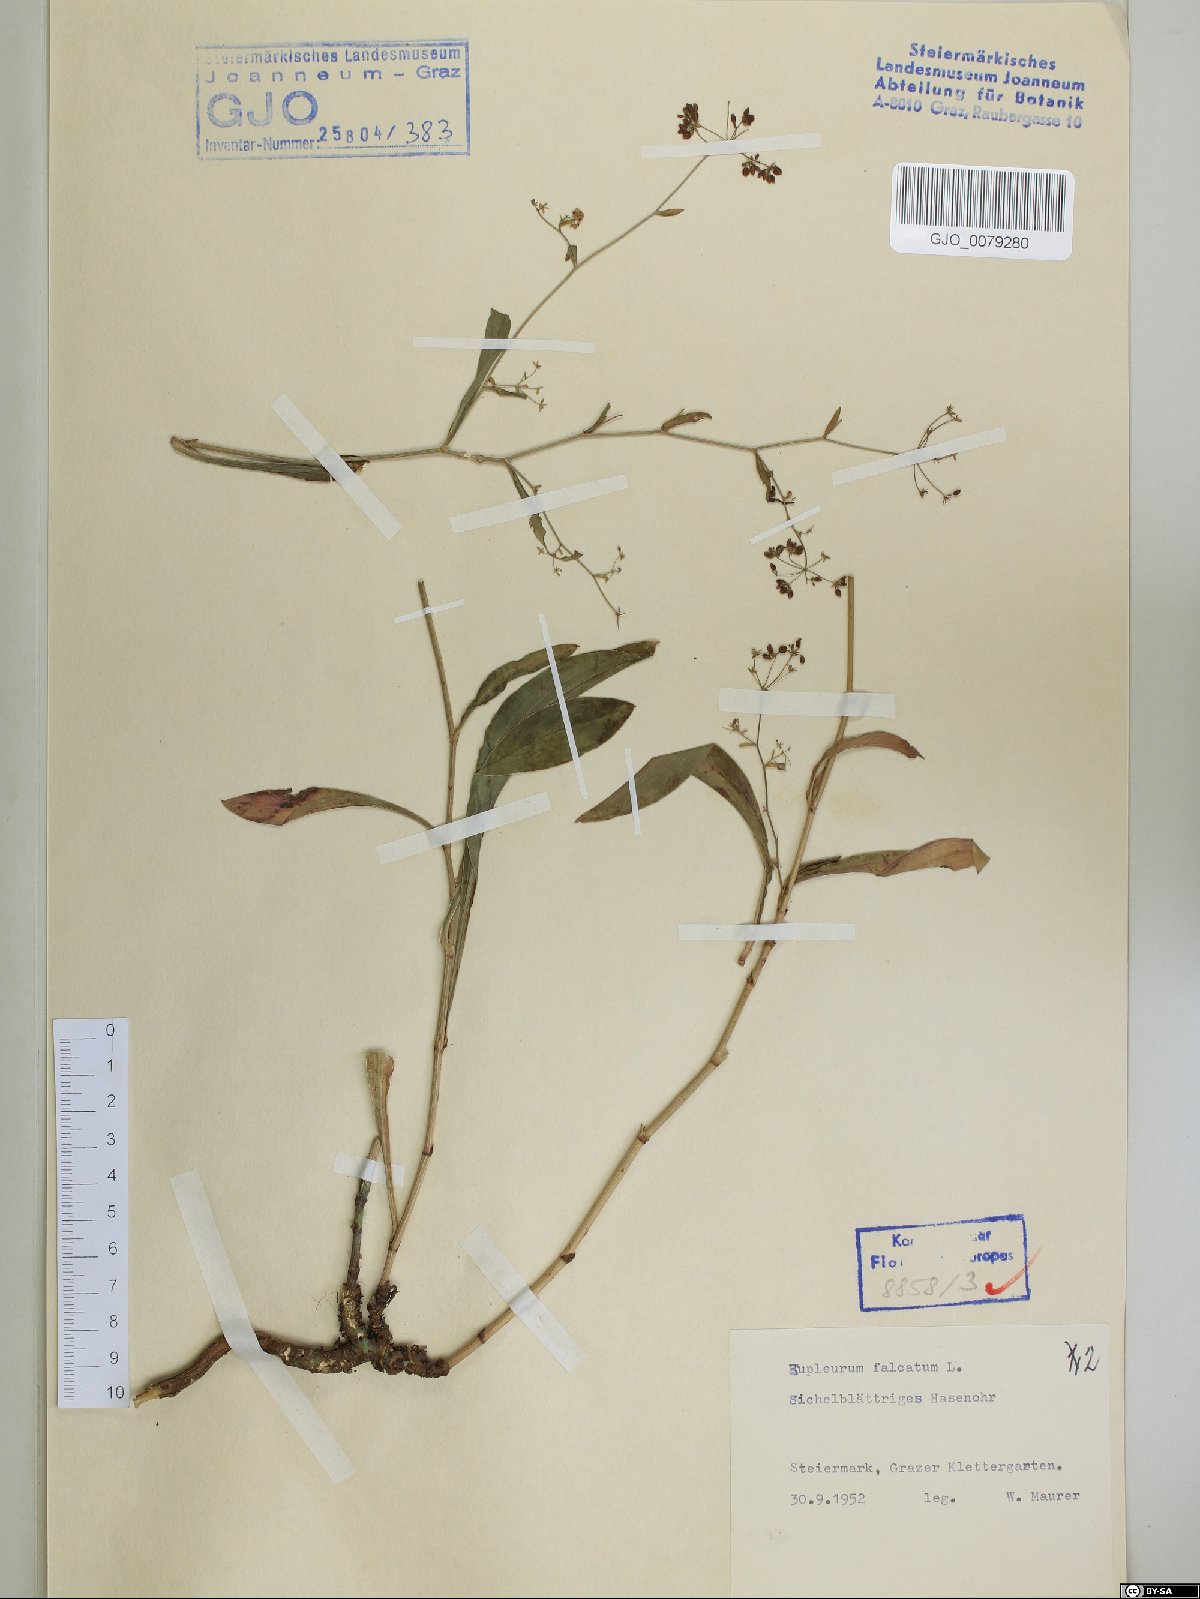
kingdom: Plantae
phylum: Tracheophyta
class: Magnoliopsida
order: Apiales
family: Apiaceae
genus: Bupleurum
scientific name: Bupleurum falcatum
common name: Sickle-leaved hare's-ear
